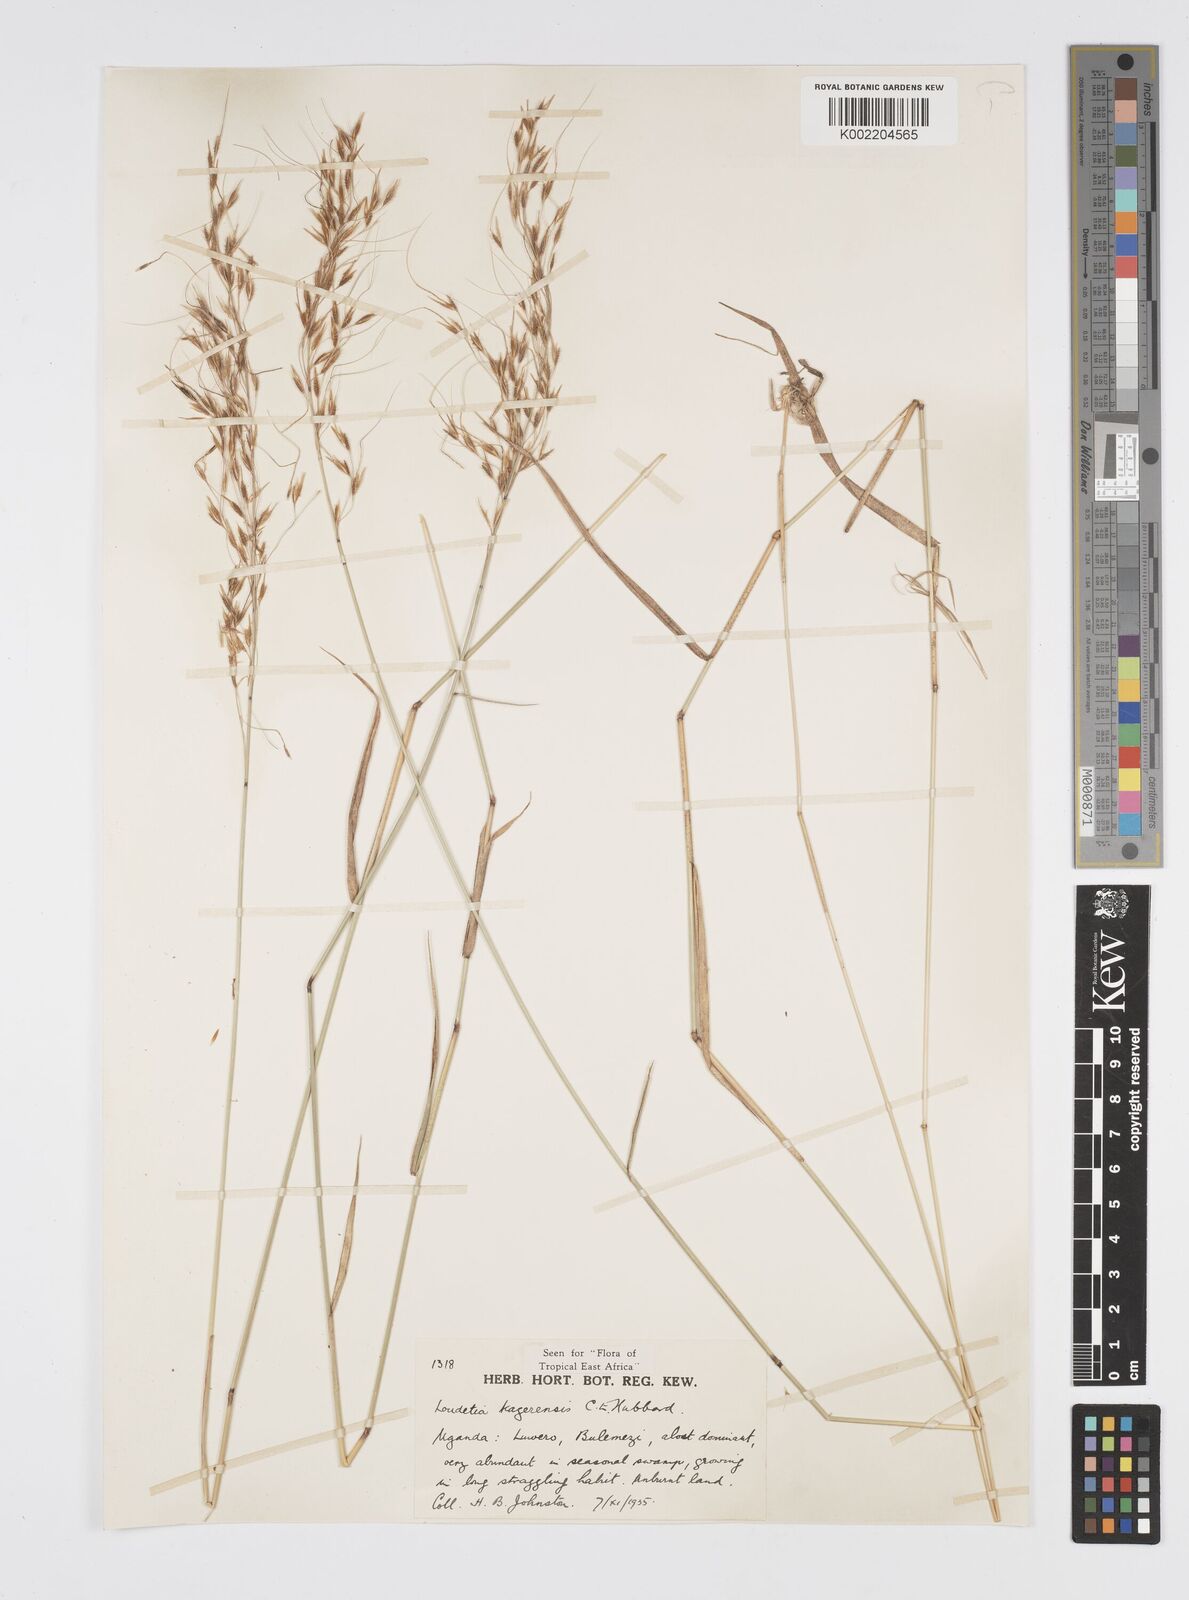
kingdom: Plantae
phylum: Tracheophyta
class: Liliopsida
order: Poales
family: Poaceae
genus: Loudetia
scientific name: Loudetia kagerensis
